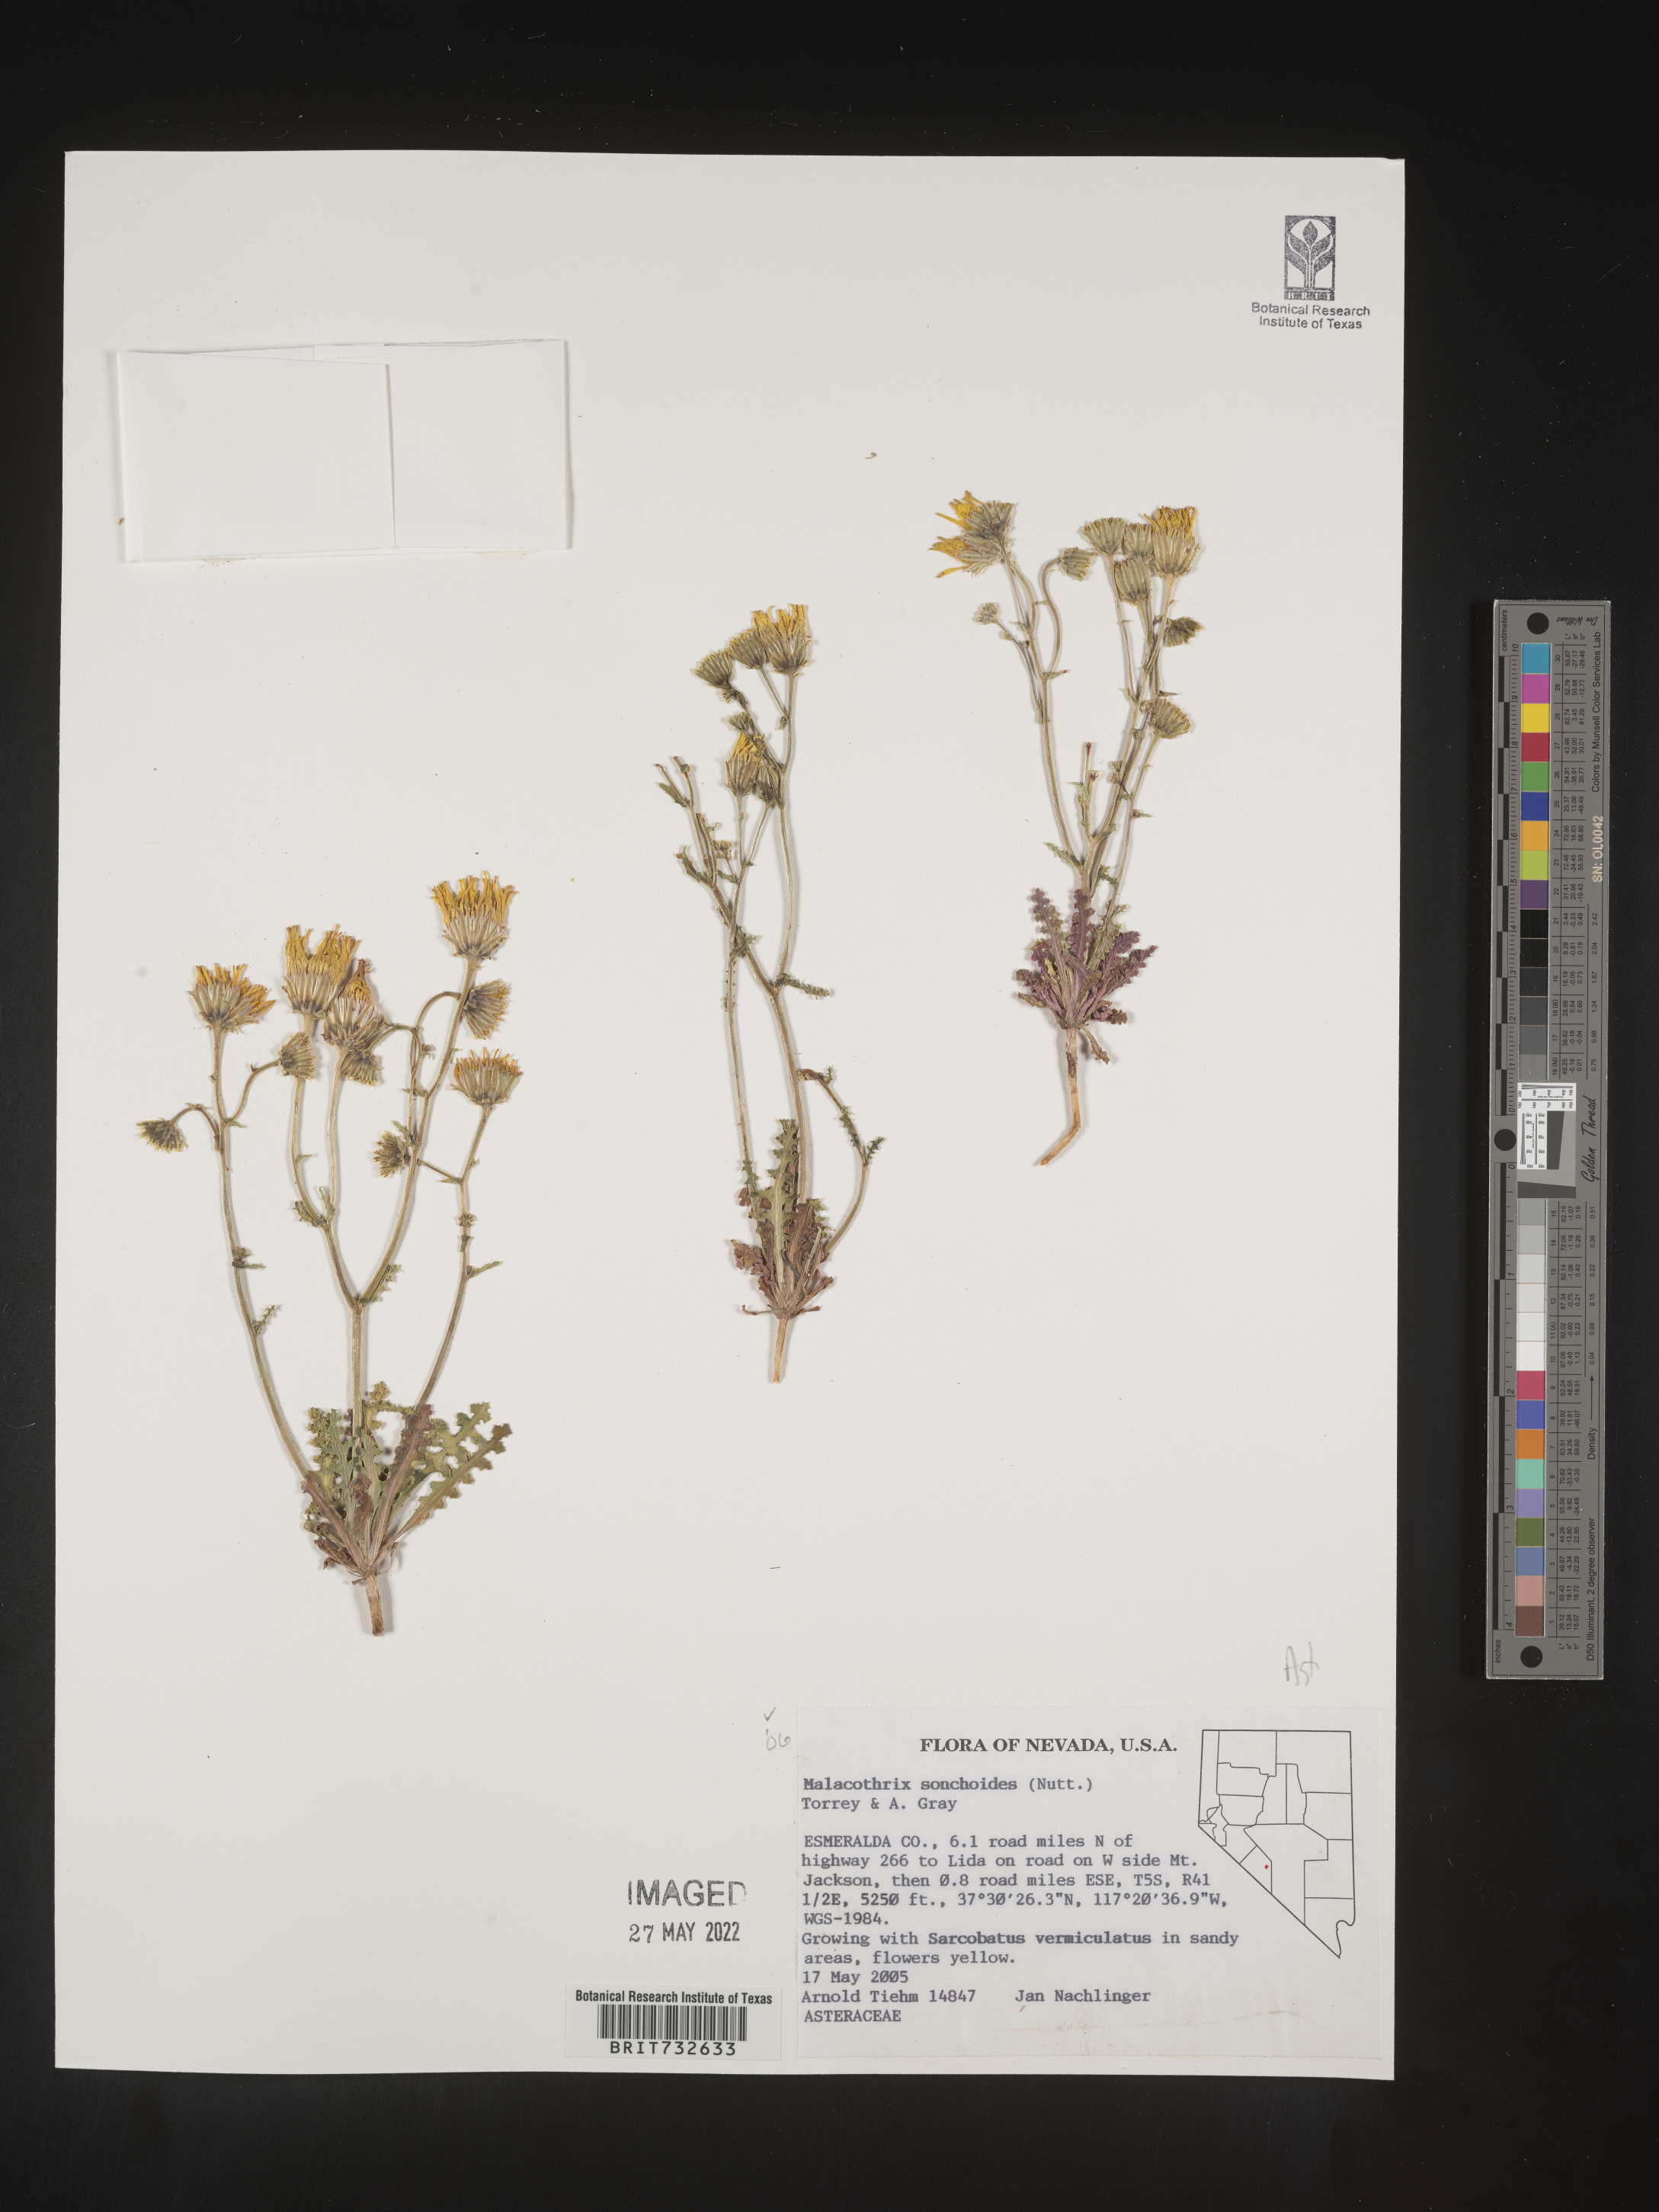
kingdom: Plantae
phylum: Tracheophyta
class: Magnoliopsida
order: Asterales
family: Asteraceae
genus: Malacothrix
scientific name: Malacothrix sonchoides
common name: Sow-thistle desert-dandelion
